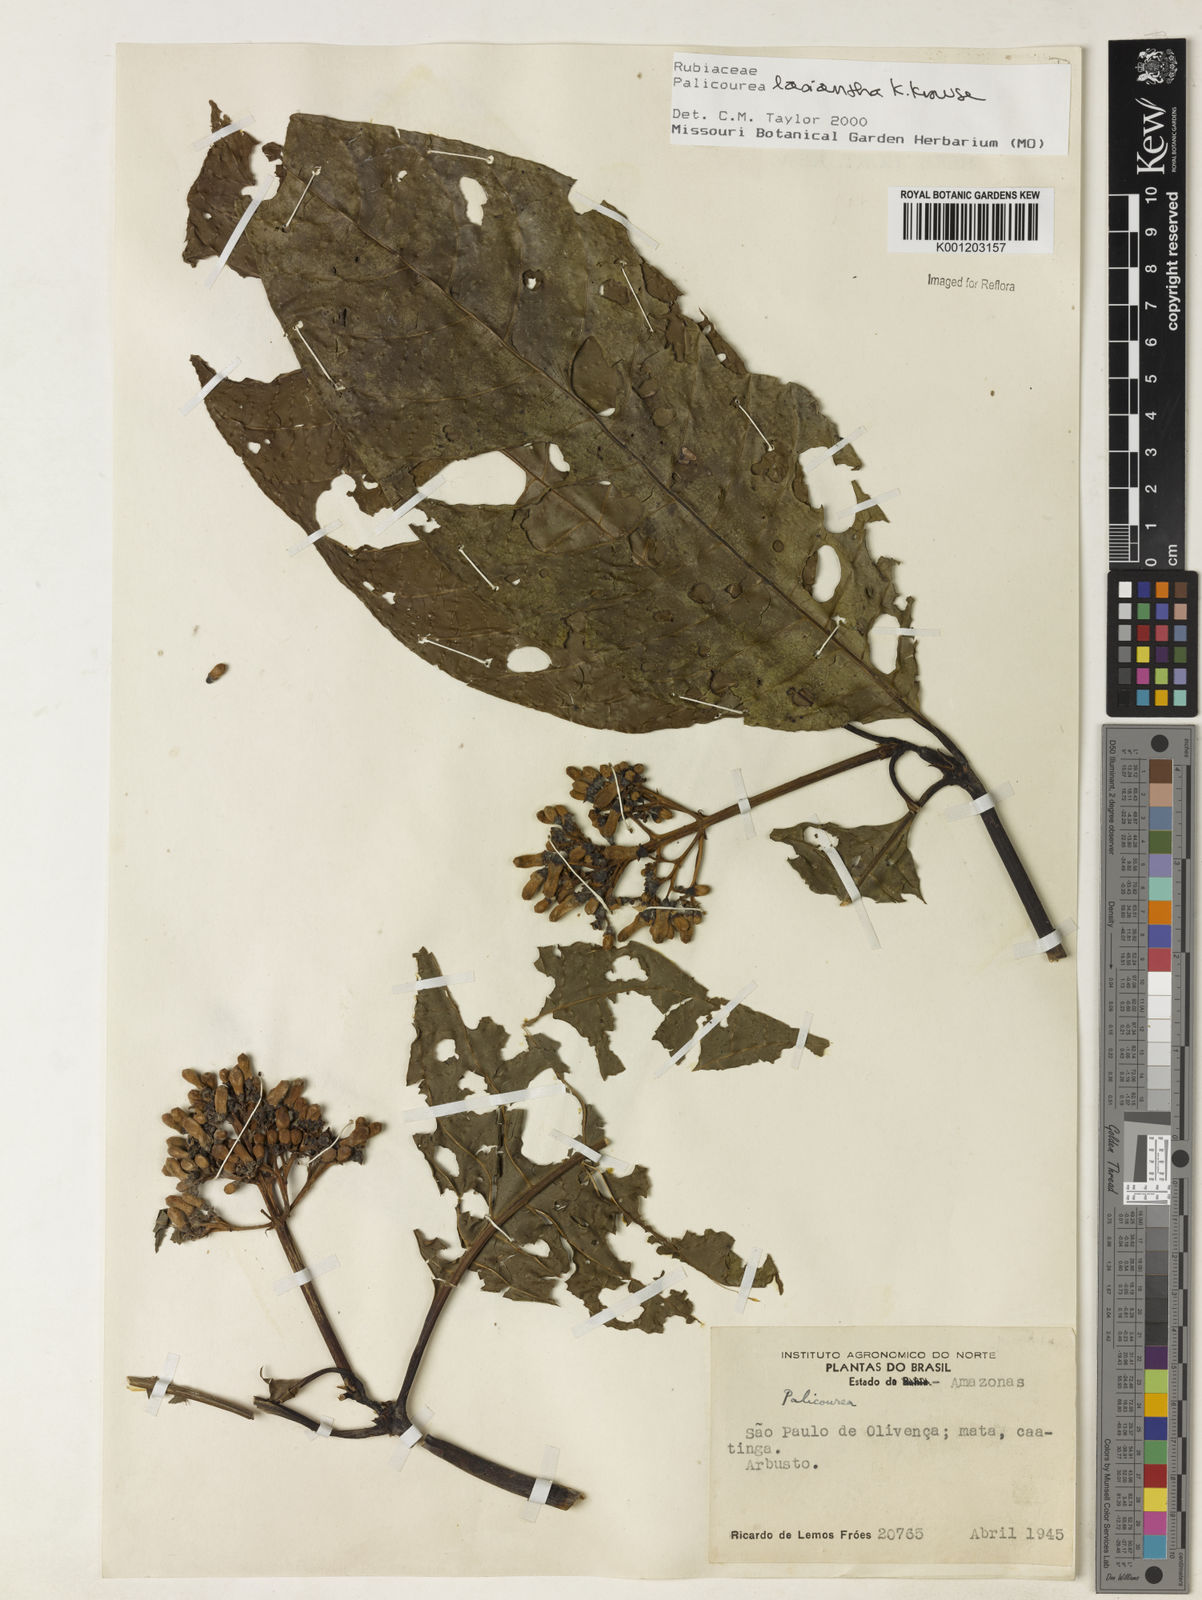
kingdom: Plantae
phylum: Tracheophyta
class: Magnoliopsida
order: Gentianales
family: Rubiaceae
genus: Palicourea
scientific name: Palicourea lasiantha
